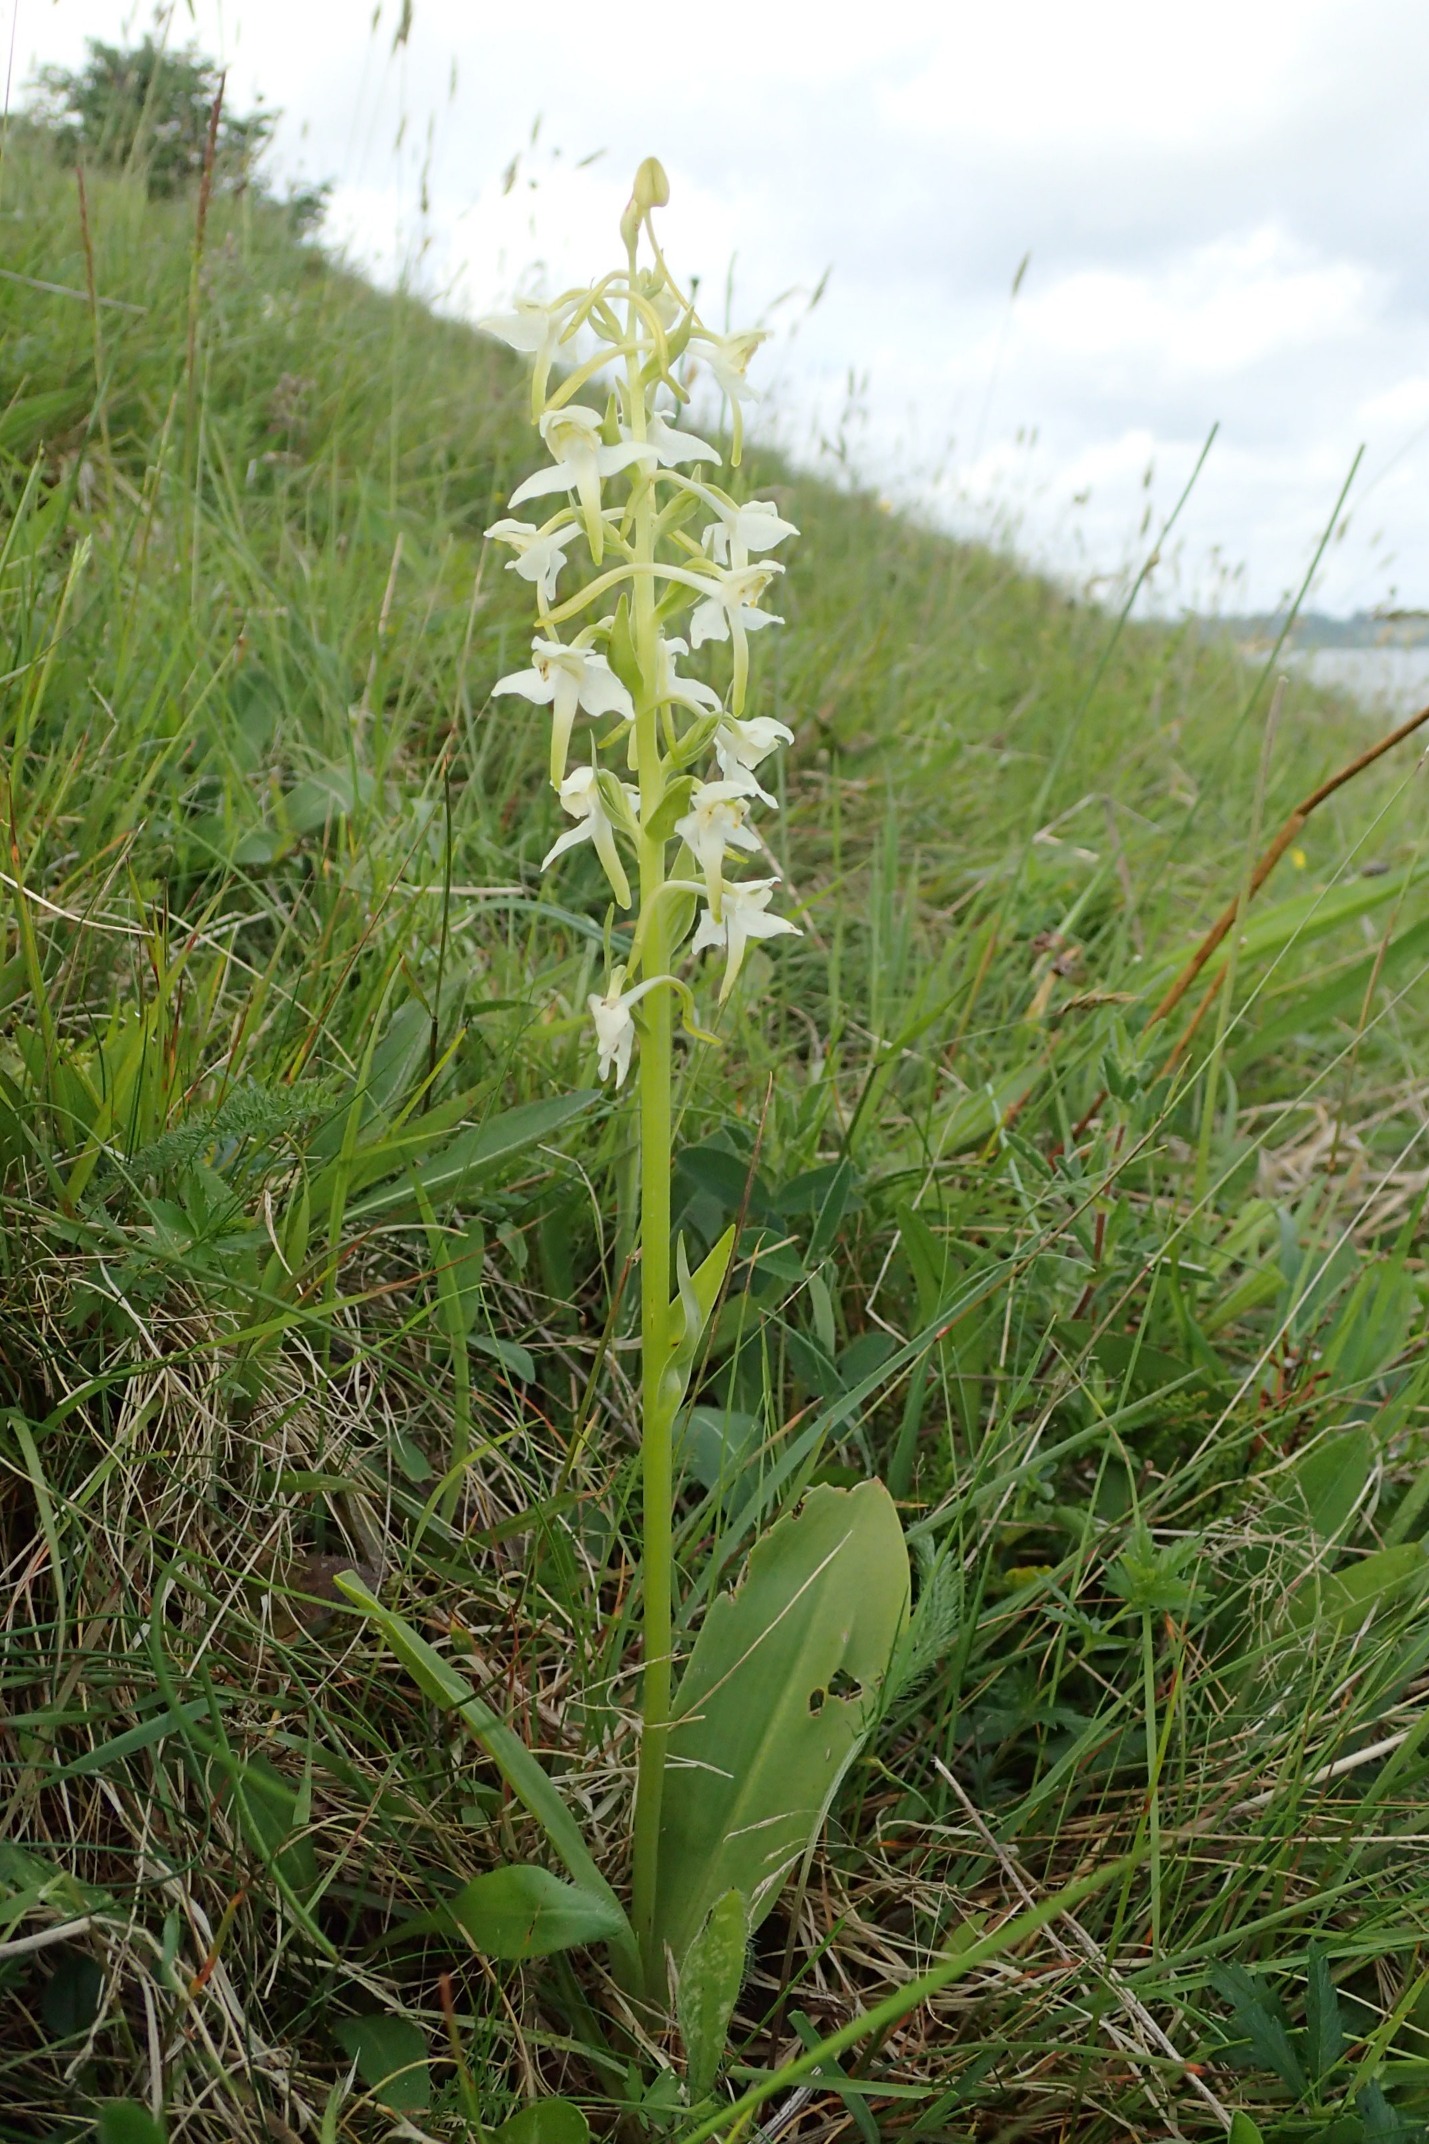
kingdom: Plantae
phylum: Tracheophyta
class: Liliopsida
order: Asparagales
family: Orchidaceae
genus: Platanthera
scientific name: Platanthera chlorantha
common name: Skov-gøgelilje
